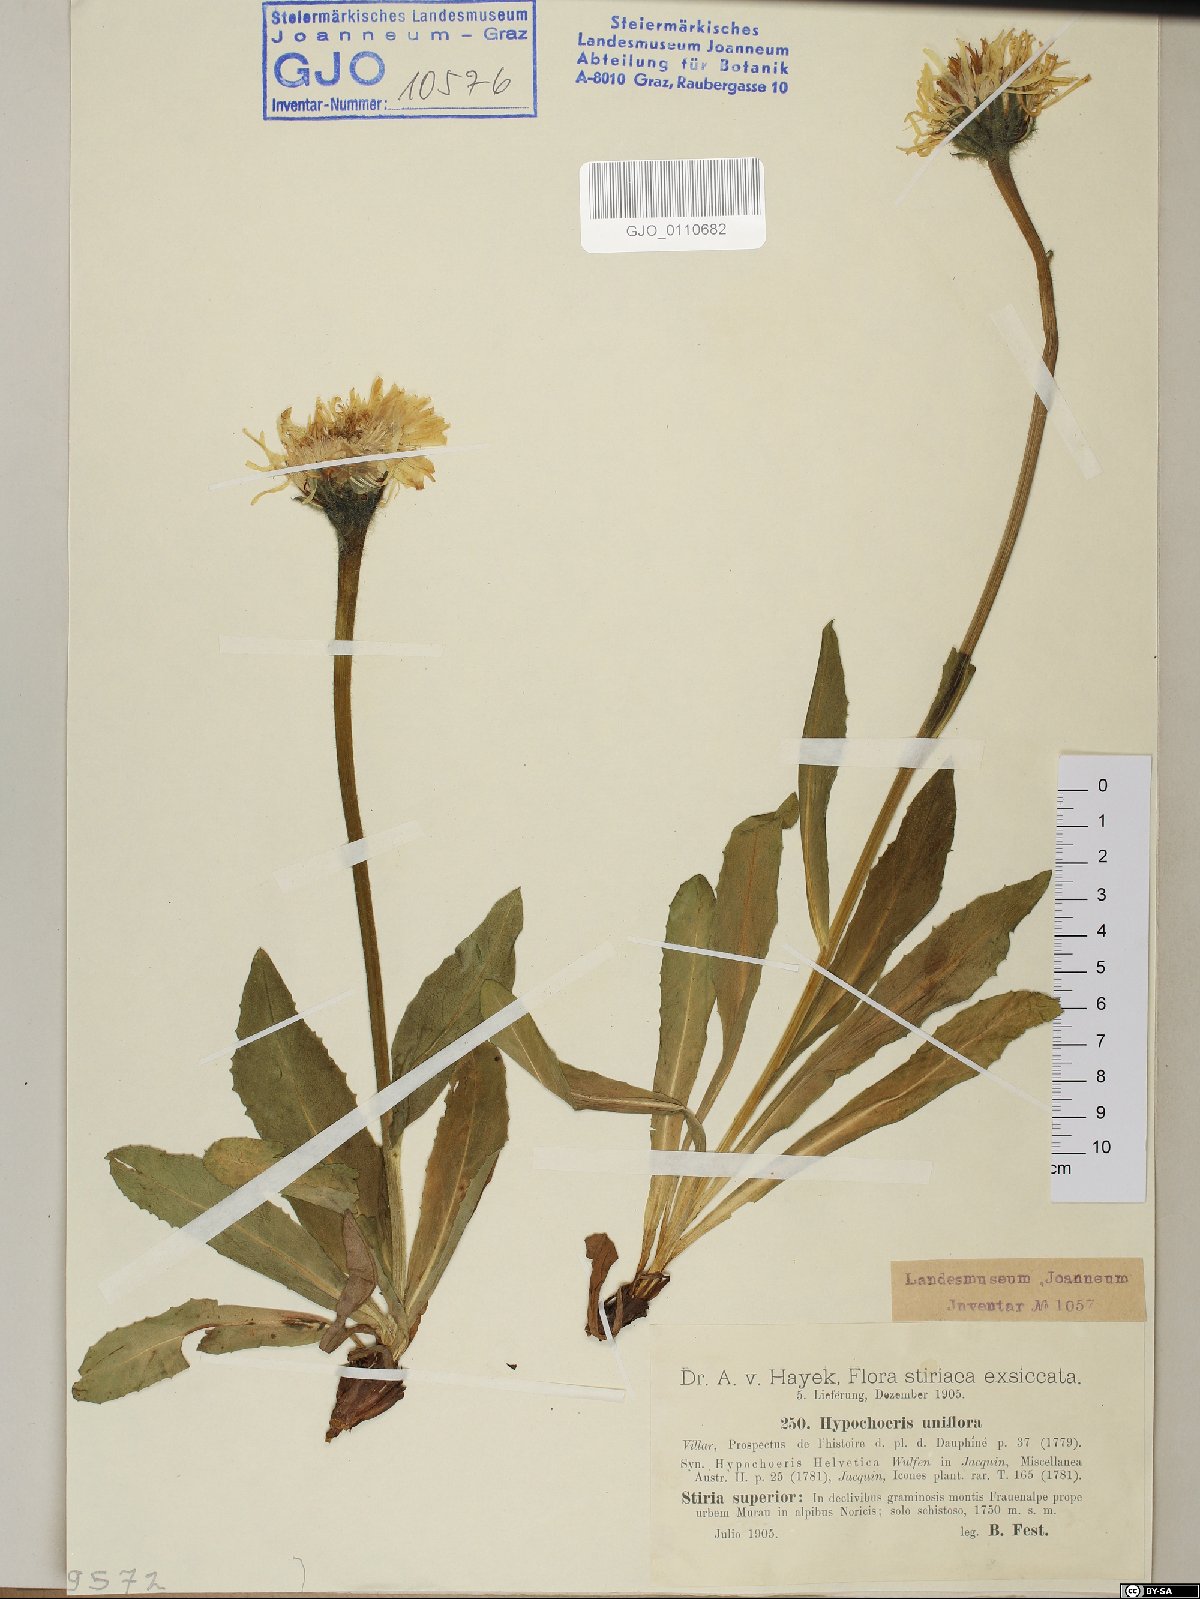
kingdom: Plantae
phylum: Tracheophyta
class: Magnoliopsida
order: Asterales
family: Asteraceae
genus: Trommsdorffia
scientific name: Trommsdorffia uniflora
